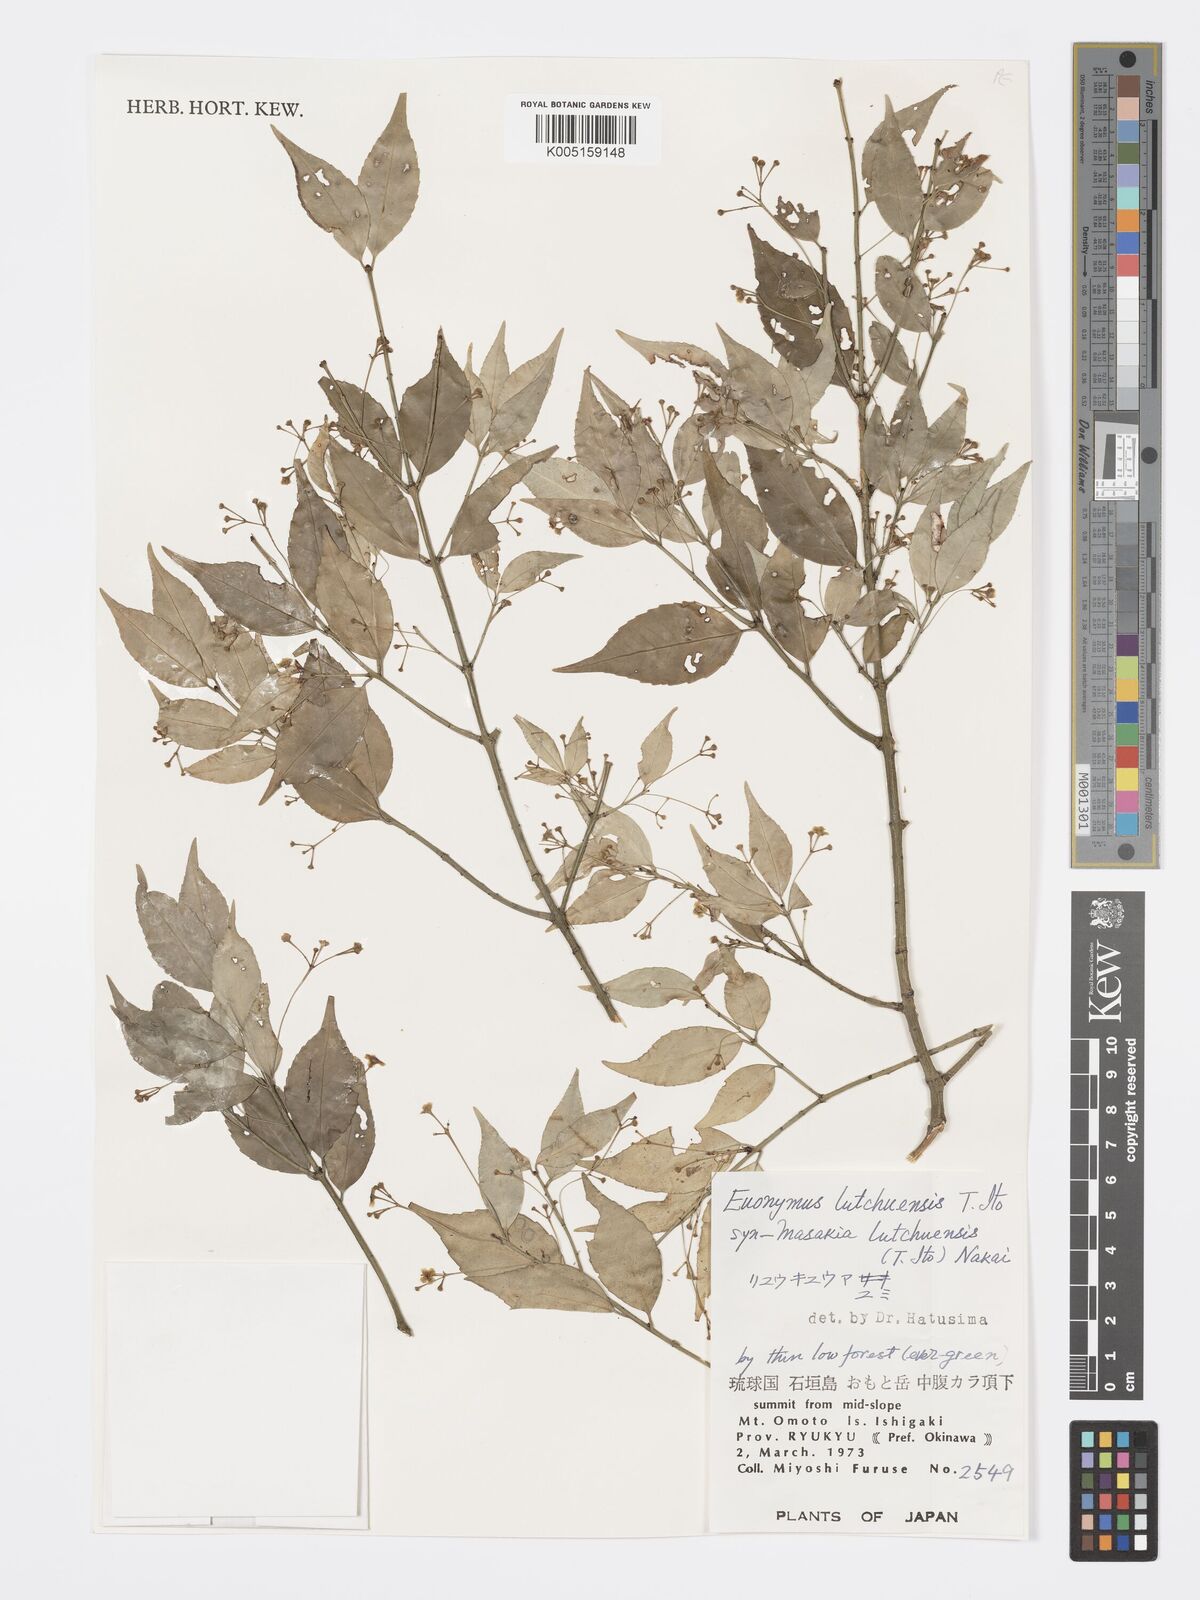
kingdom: Plantae
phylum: Tracheophyta
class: Magnoliopsida
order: Celastrales
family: Celastraceae
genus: Euonymus
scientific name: Euonymus lutchuensis
